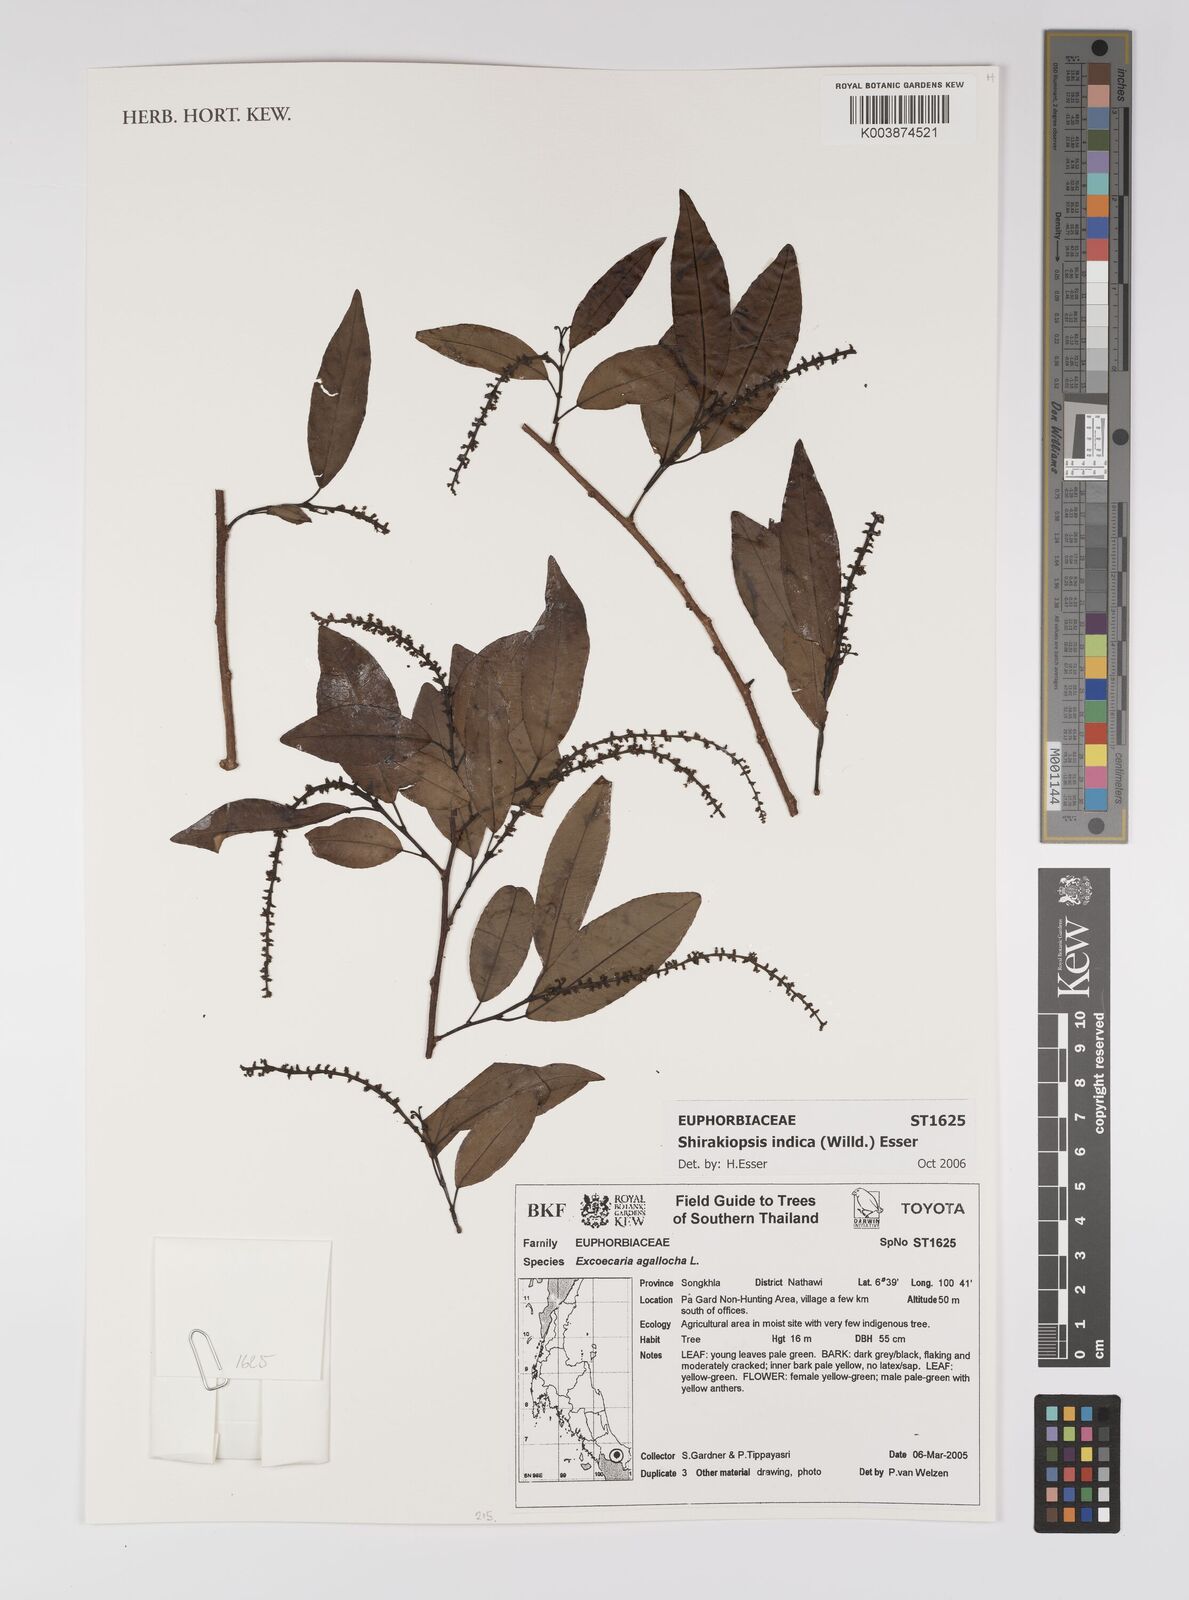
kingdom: Plantae
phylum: Tracheophyta
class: Magnoliopsida
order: Malpighiales
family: Euphorbiaceae
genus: Shirakiopsis
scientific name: Shirakiopsis indica
